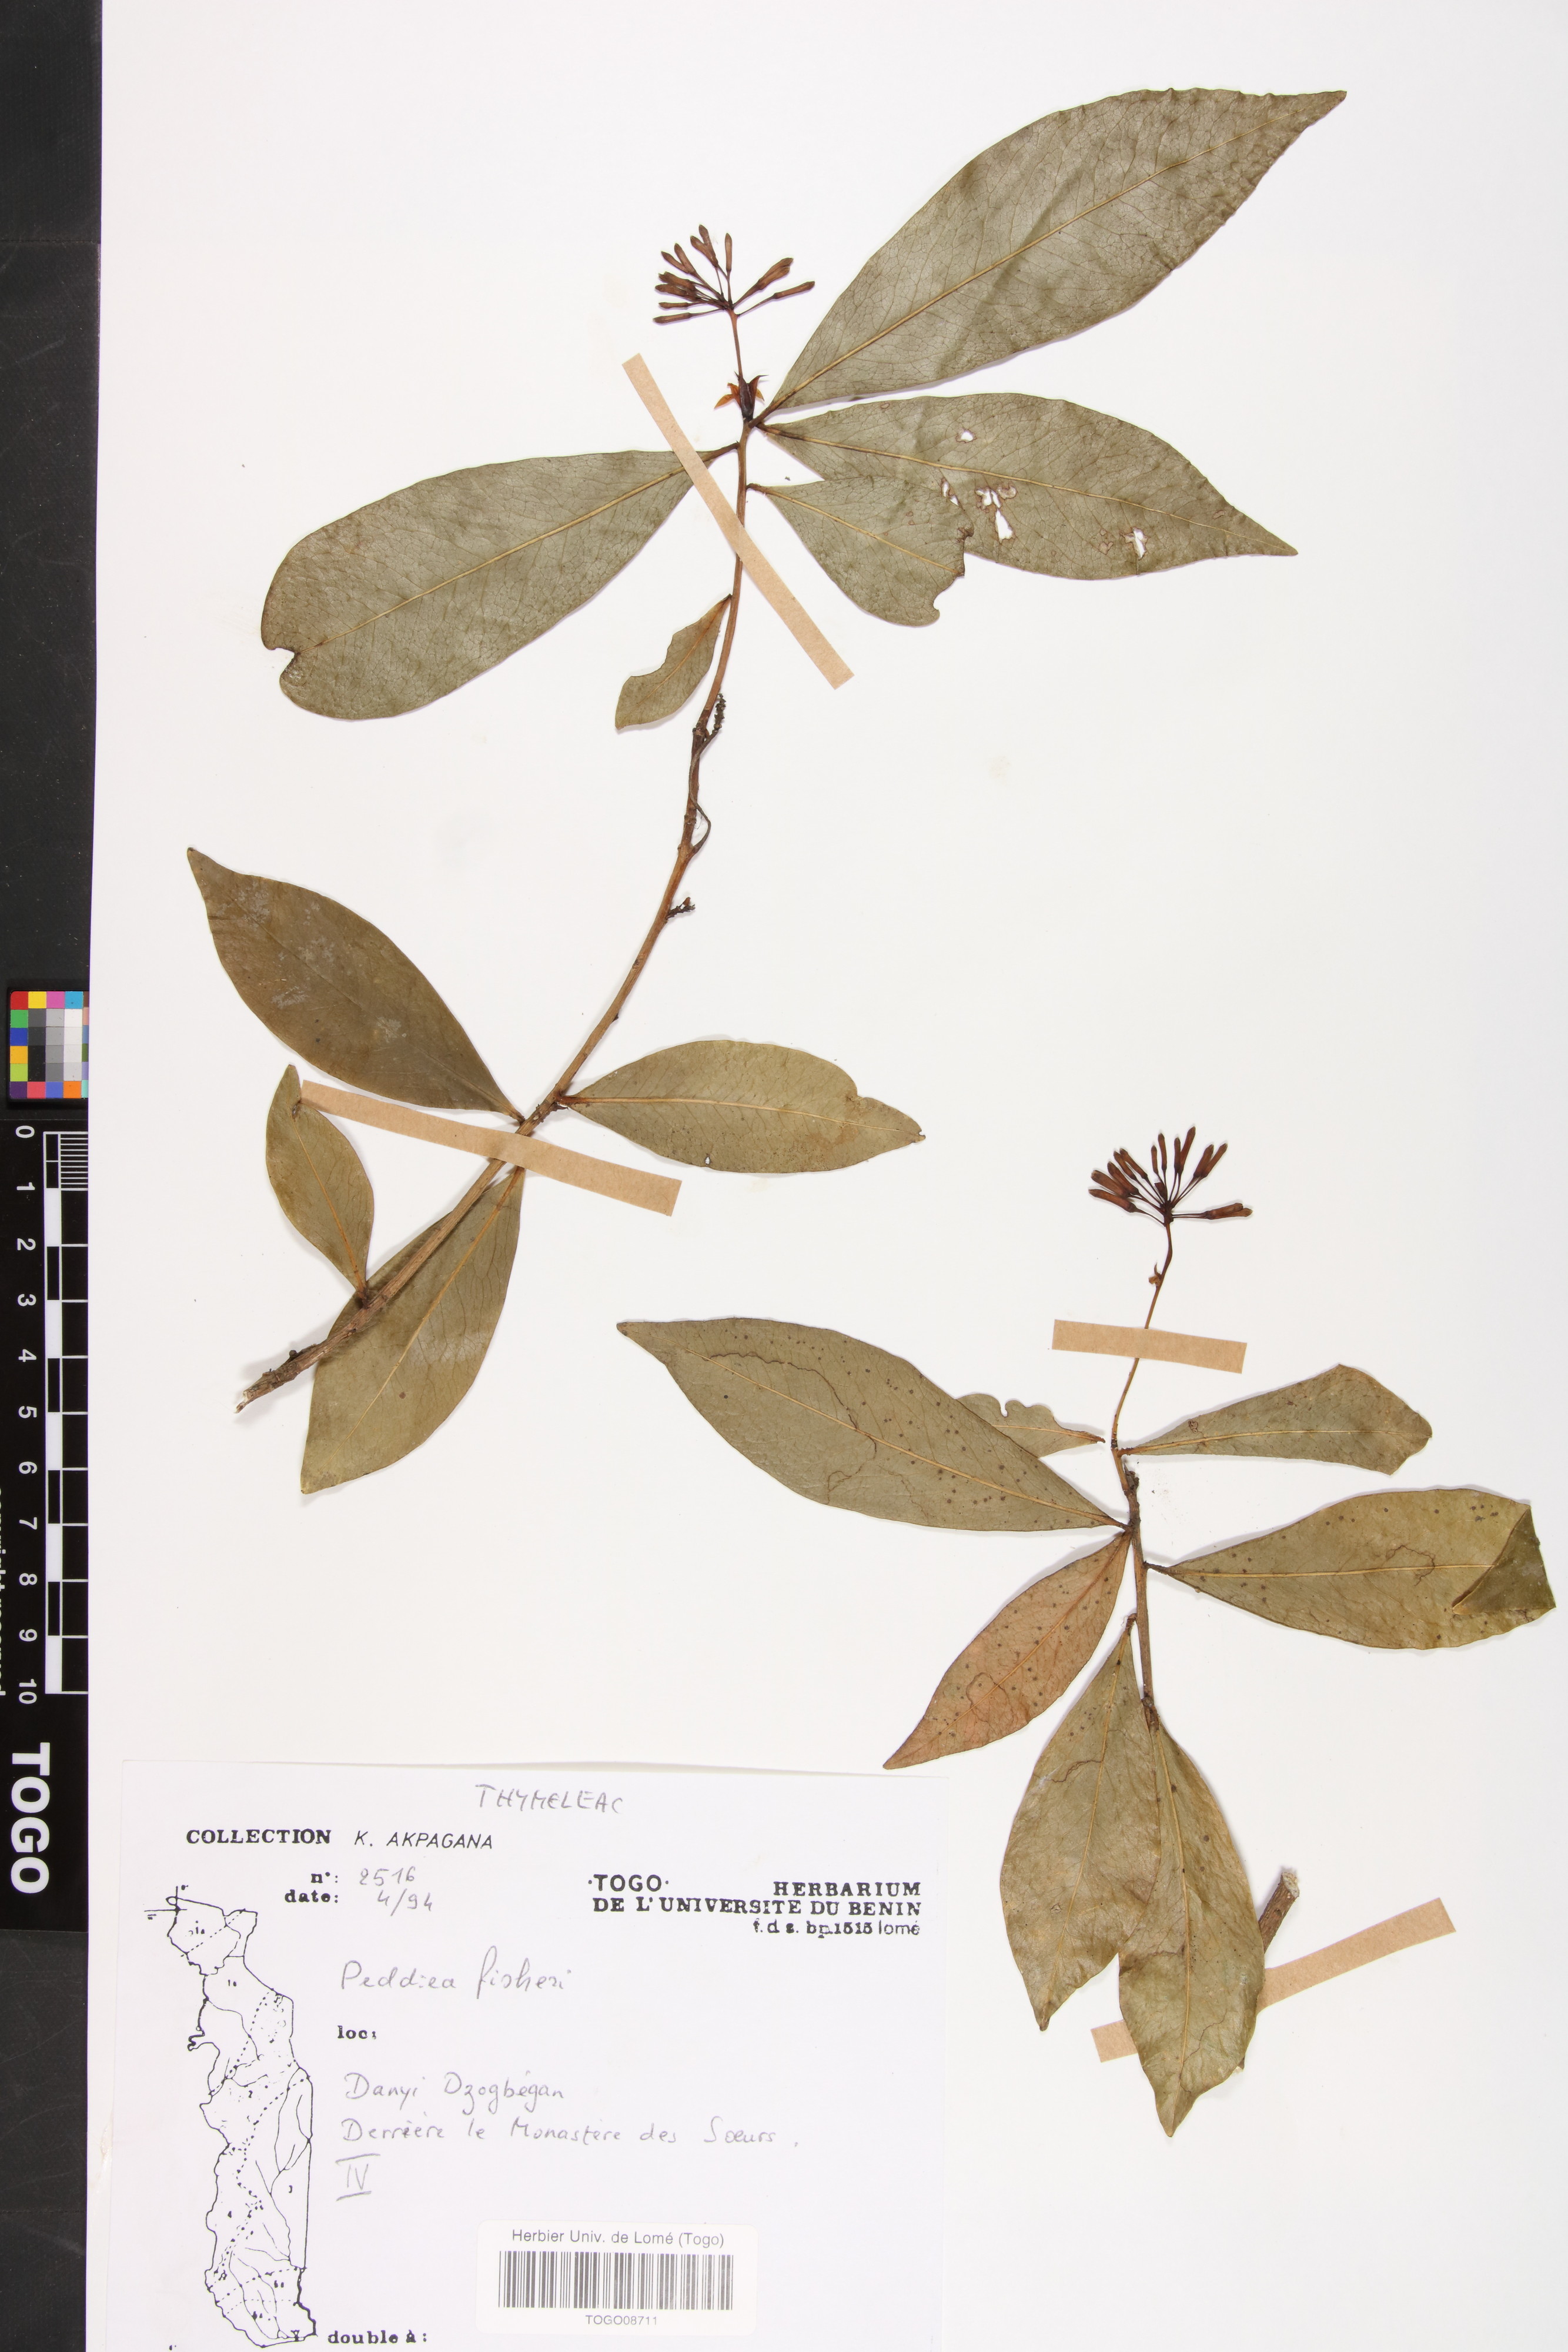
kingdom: Plantae
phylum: Tracheophyta
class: Magnoliopsida
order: Malvales
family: Thymelaeaceae
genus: Peddiea
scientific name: Peddiea fischeri
